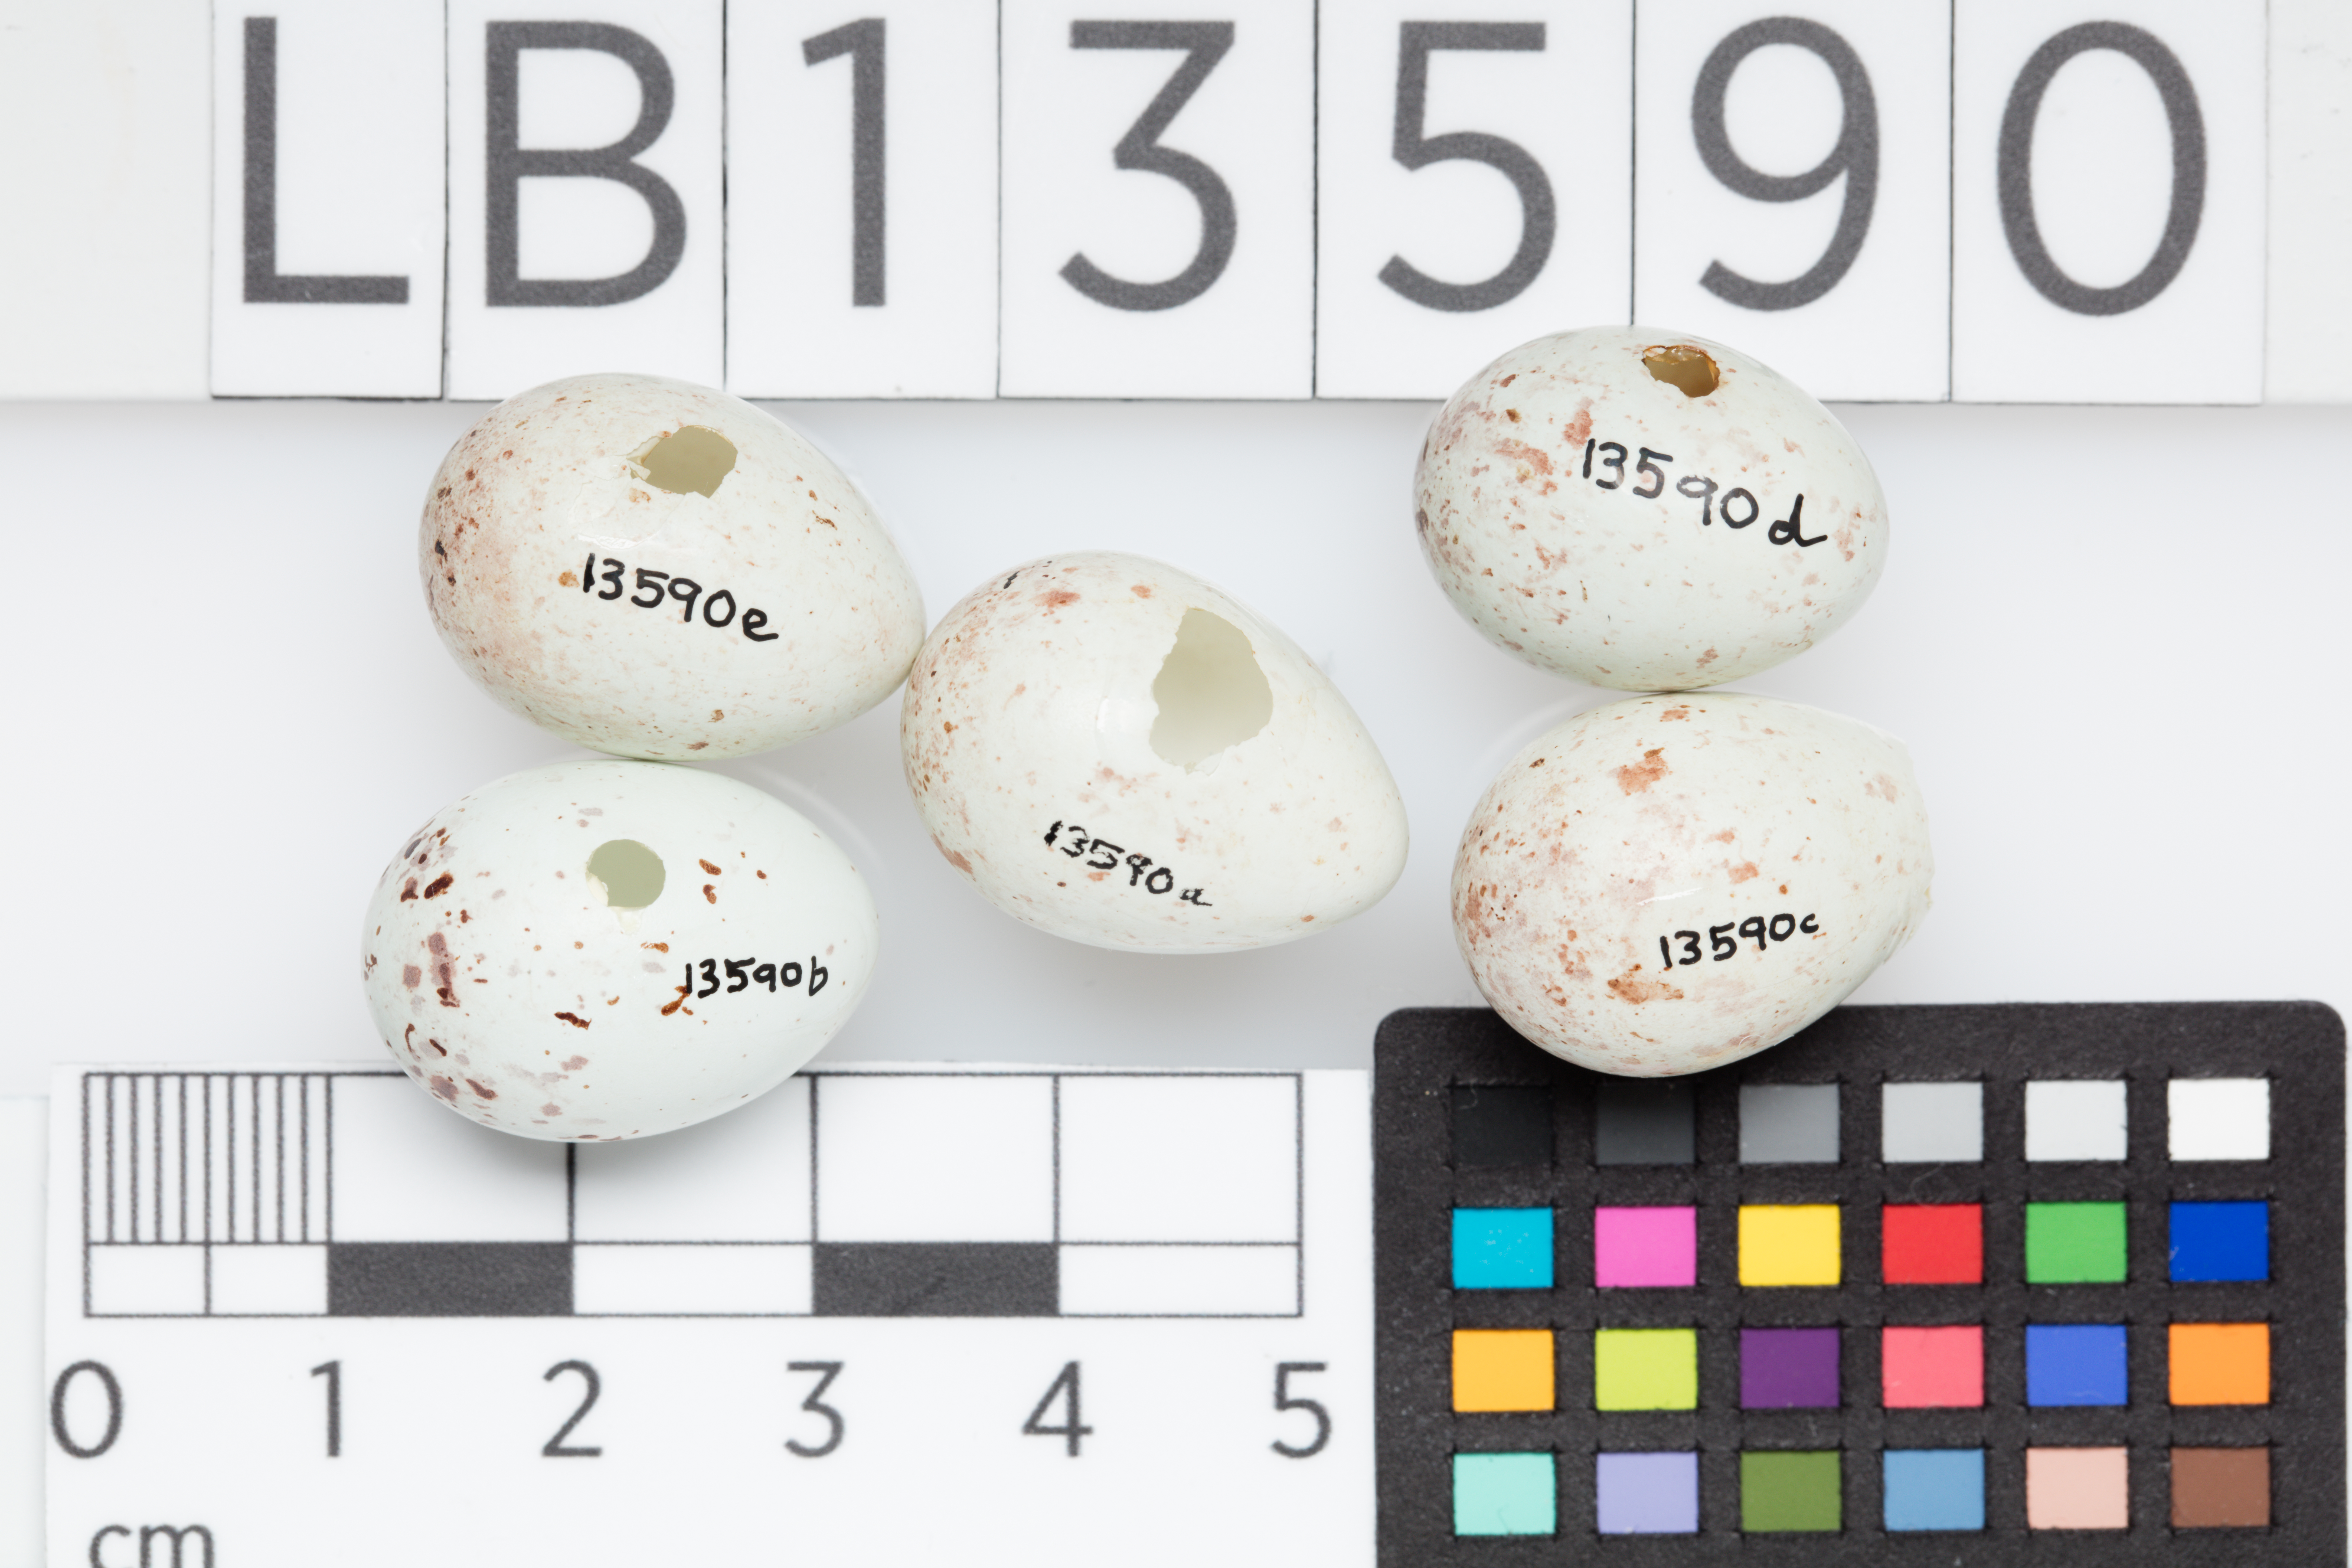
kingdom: Plantae
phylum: Tracheophyta
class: Liliopsida
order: Poales
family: Poaceae
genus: Chloris
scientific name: Chloris chloris
